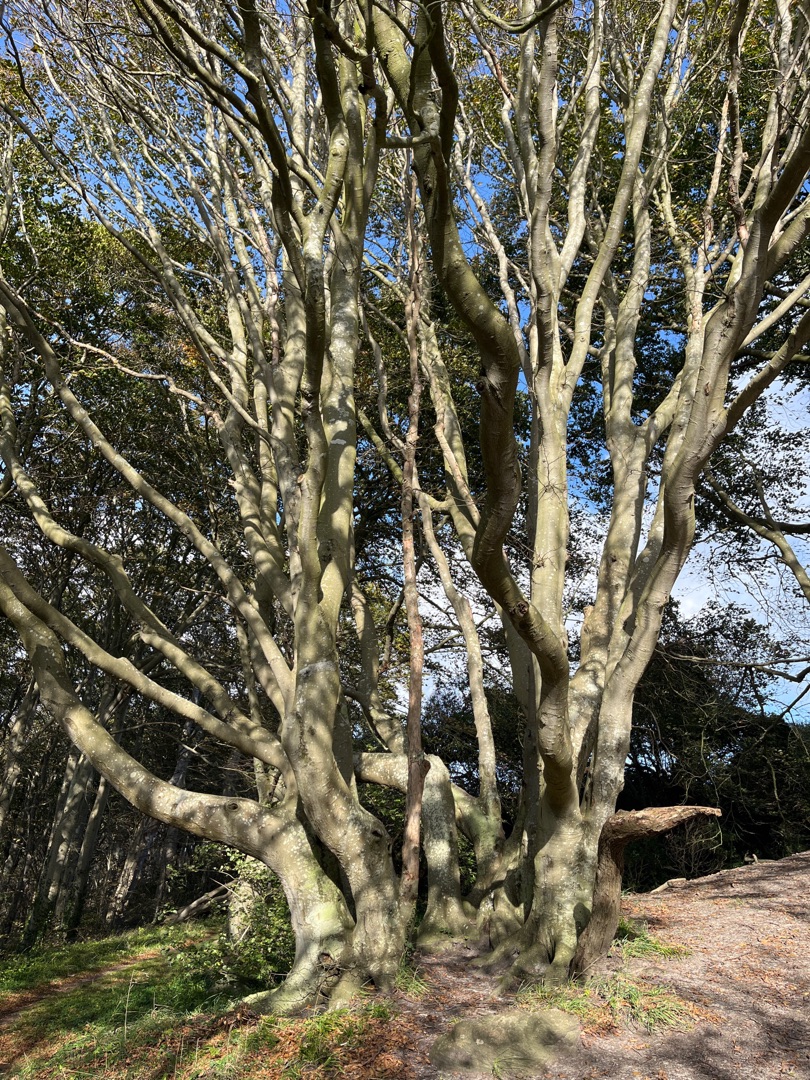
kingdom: Plantae
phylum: Tracheophyta
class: Magnoliopsida
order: Fagales
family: Fagaceae
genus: Fagus
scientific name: Fagus sylvatica
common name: Bøg
